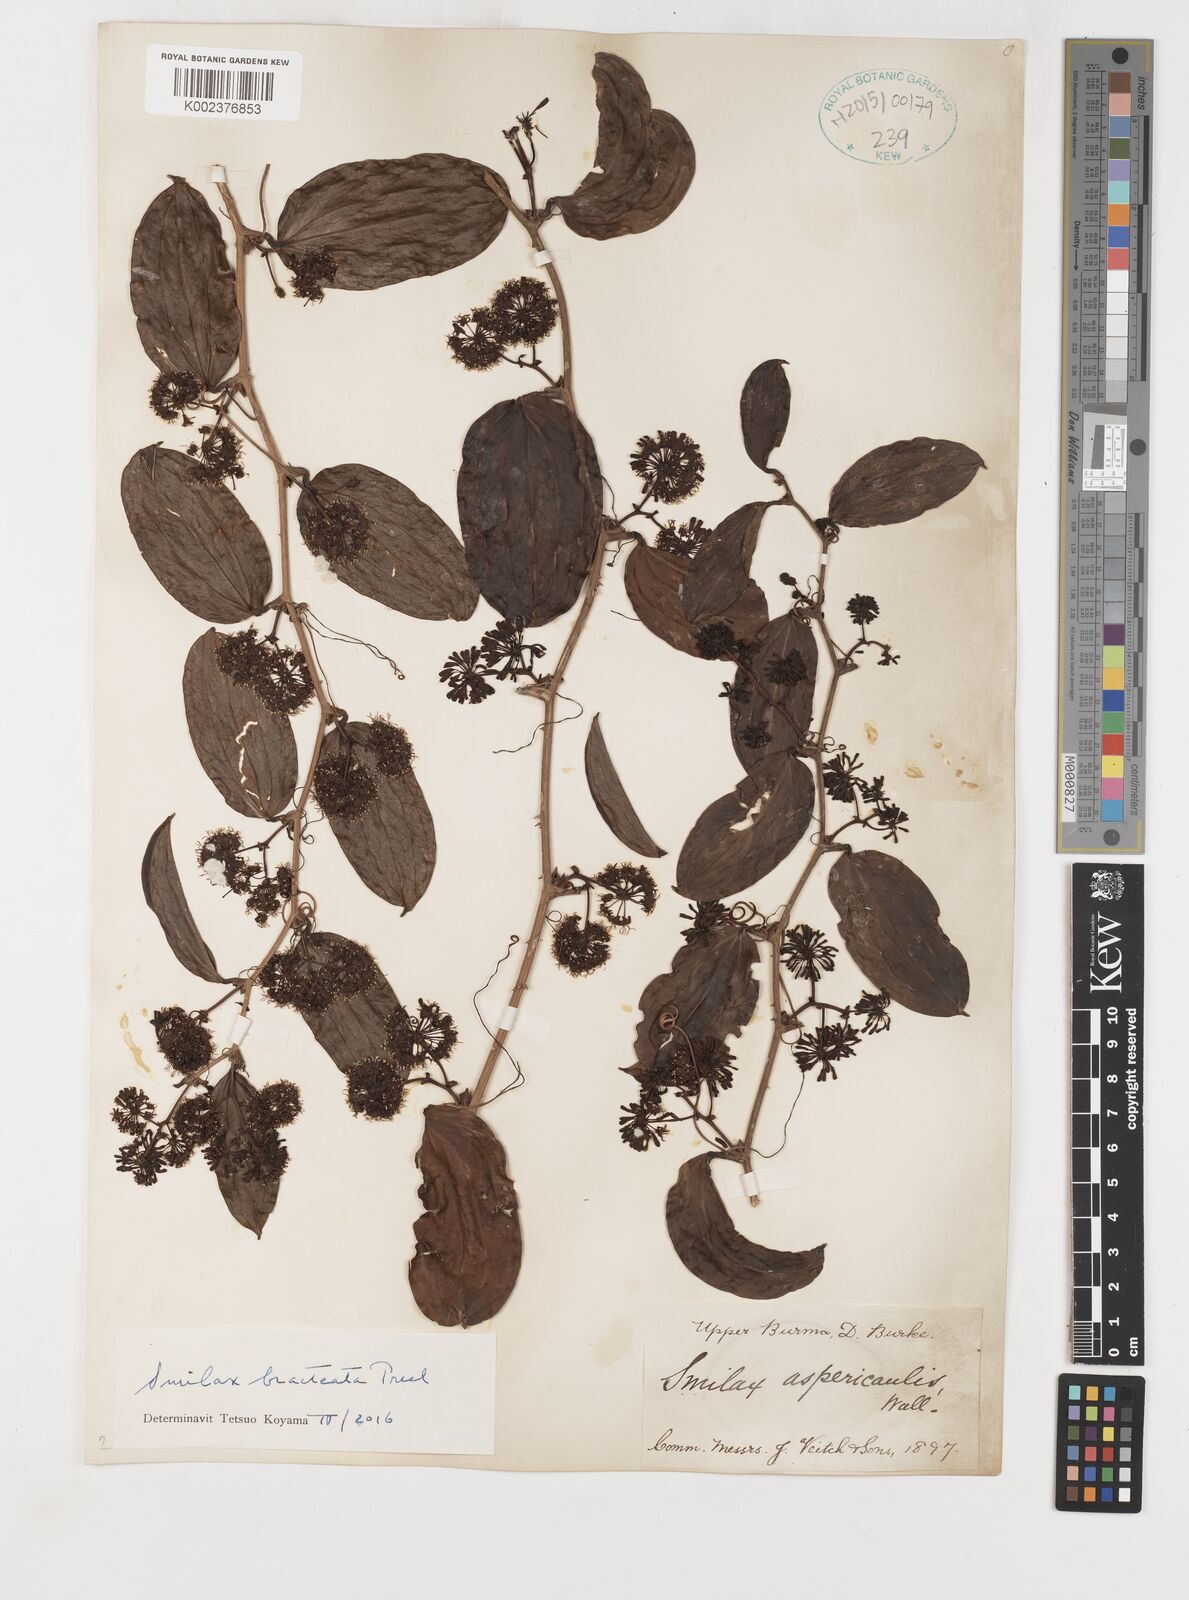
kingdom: Plantae
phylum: Tracheophyta
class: Liliopsida
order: Liliales
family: Smilacaceae
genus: Smilax
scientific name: Smilax bracteata
